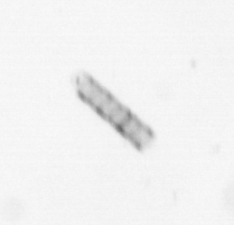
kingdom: Chromista
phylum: Ochrophyta
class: Bacillariophyceae
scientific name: Bacillariophyceae
